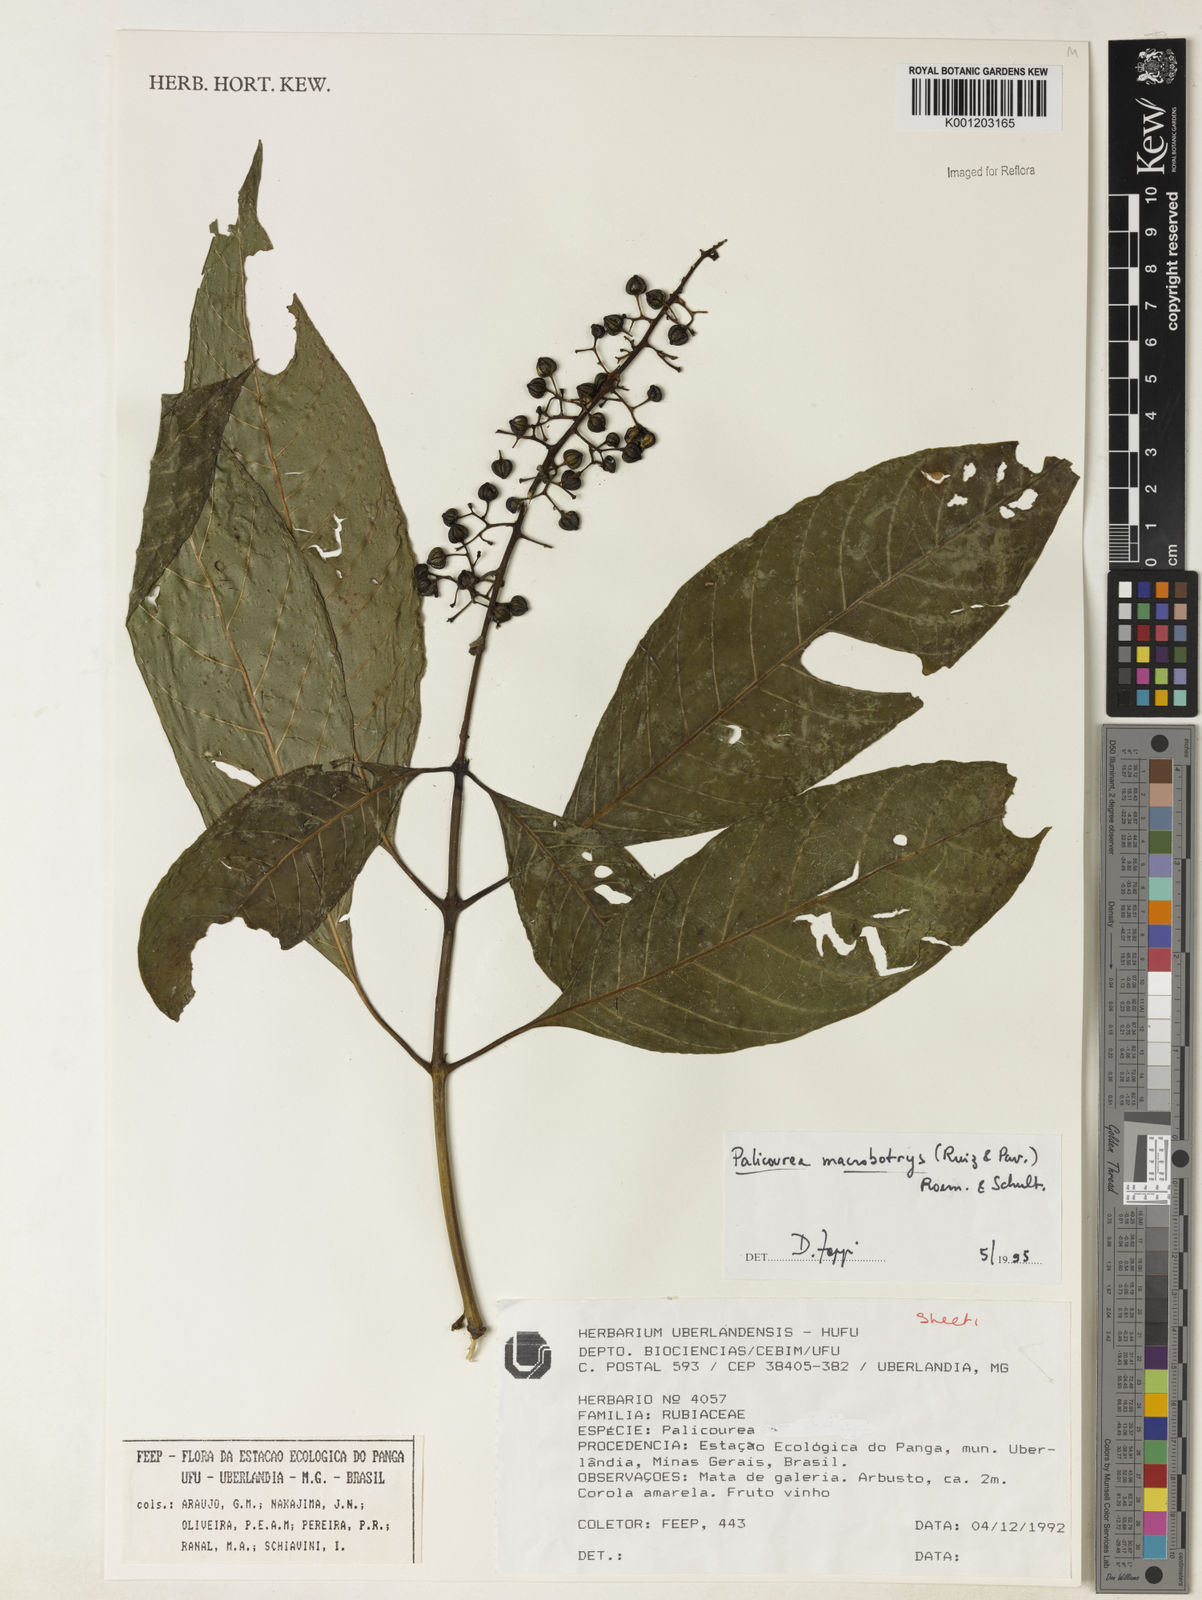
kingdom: Plantae
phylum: Tracheophyta
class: Magnoliopsida
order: Gentianales
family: Rubiaceae
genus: Palicourea
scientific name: Palicourea macrobotrys
